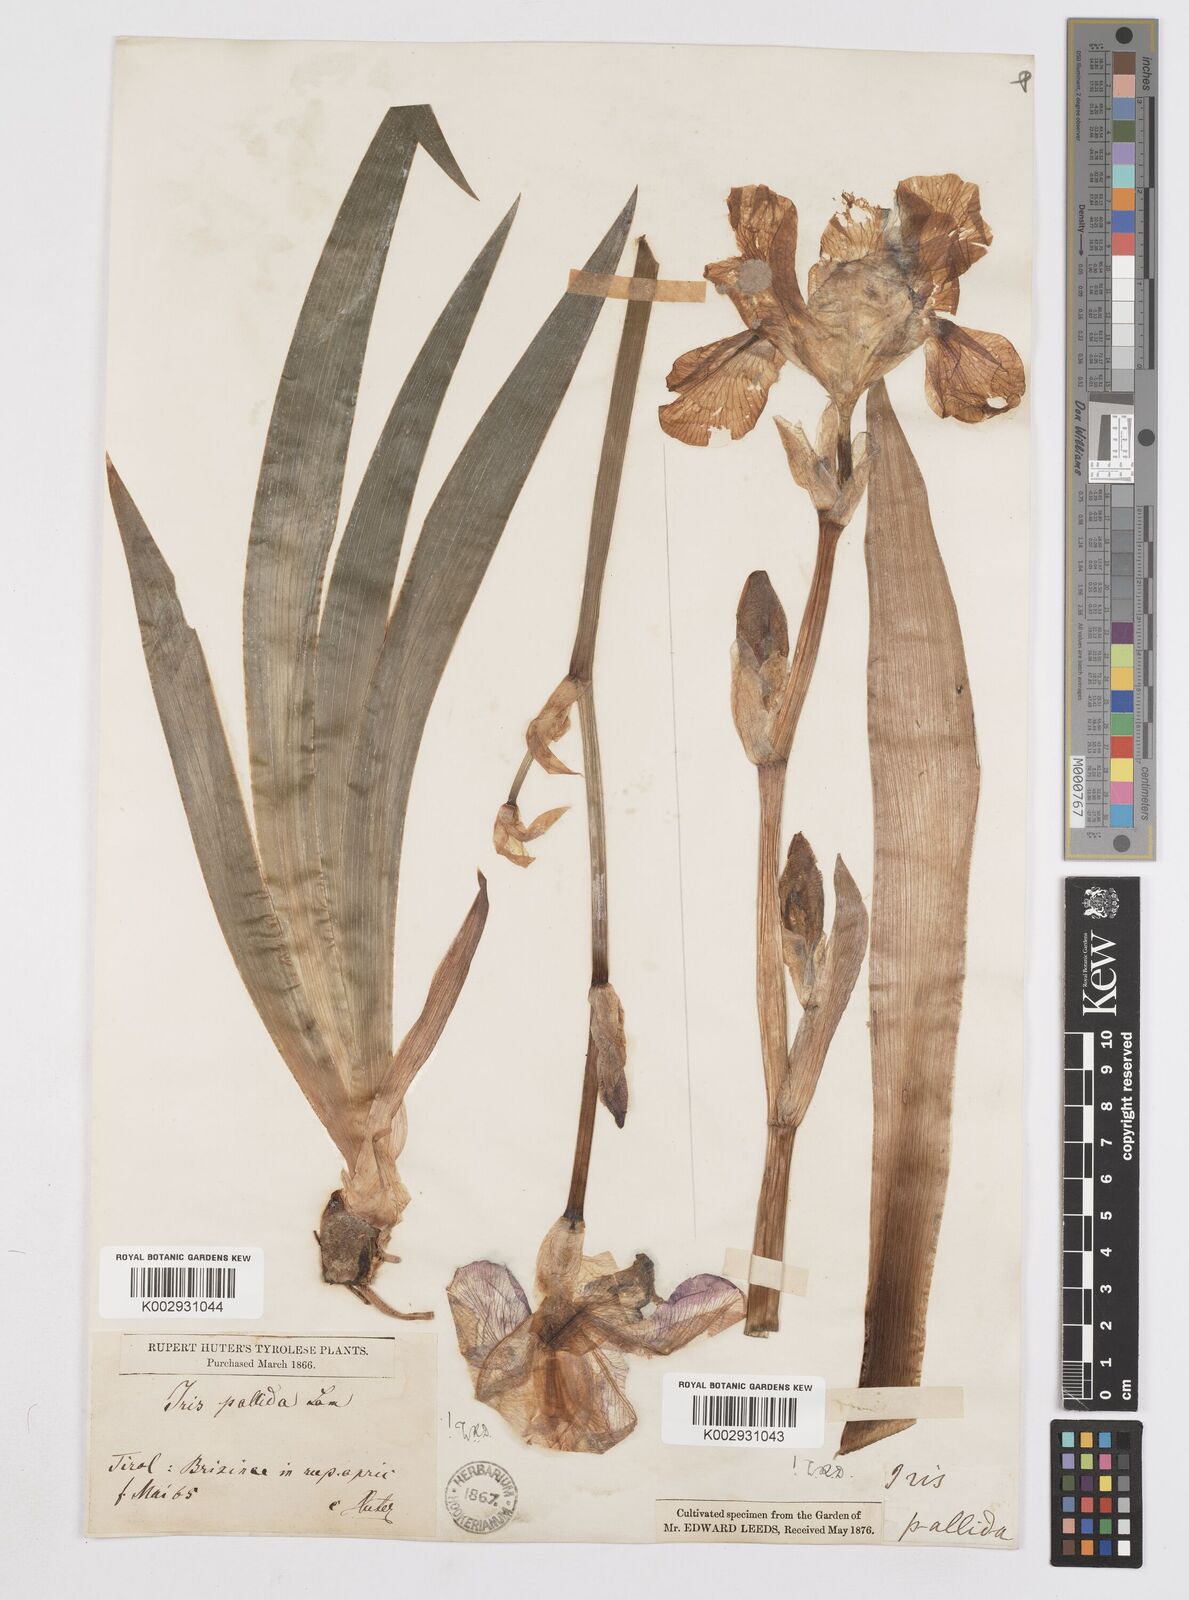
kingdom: Plantae
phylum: Tracheophyta
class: Liliopsida
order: Asparagales
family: Iridaceae
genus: Iris
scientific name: Iris clarkei
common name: Tibet iris
